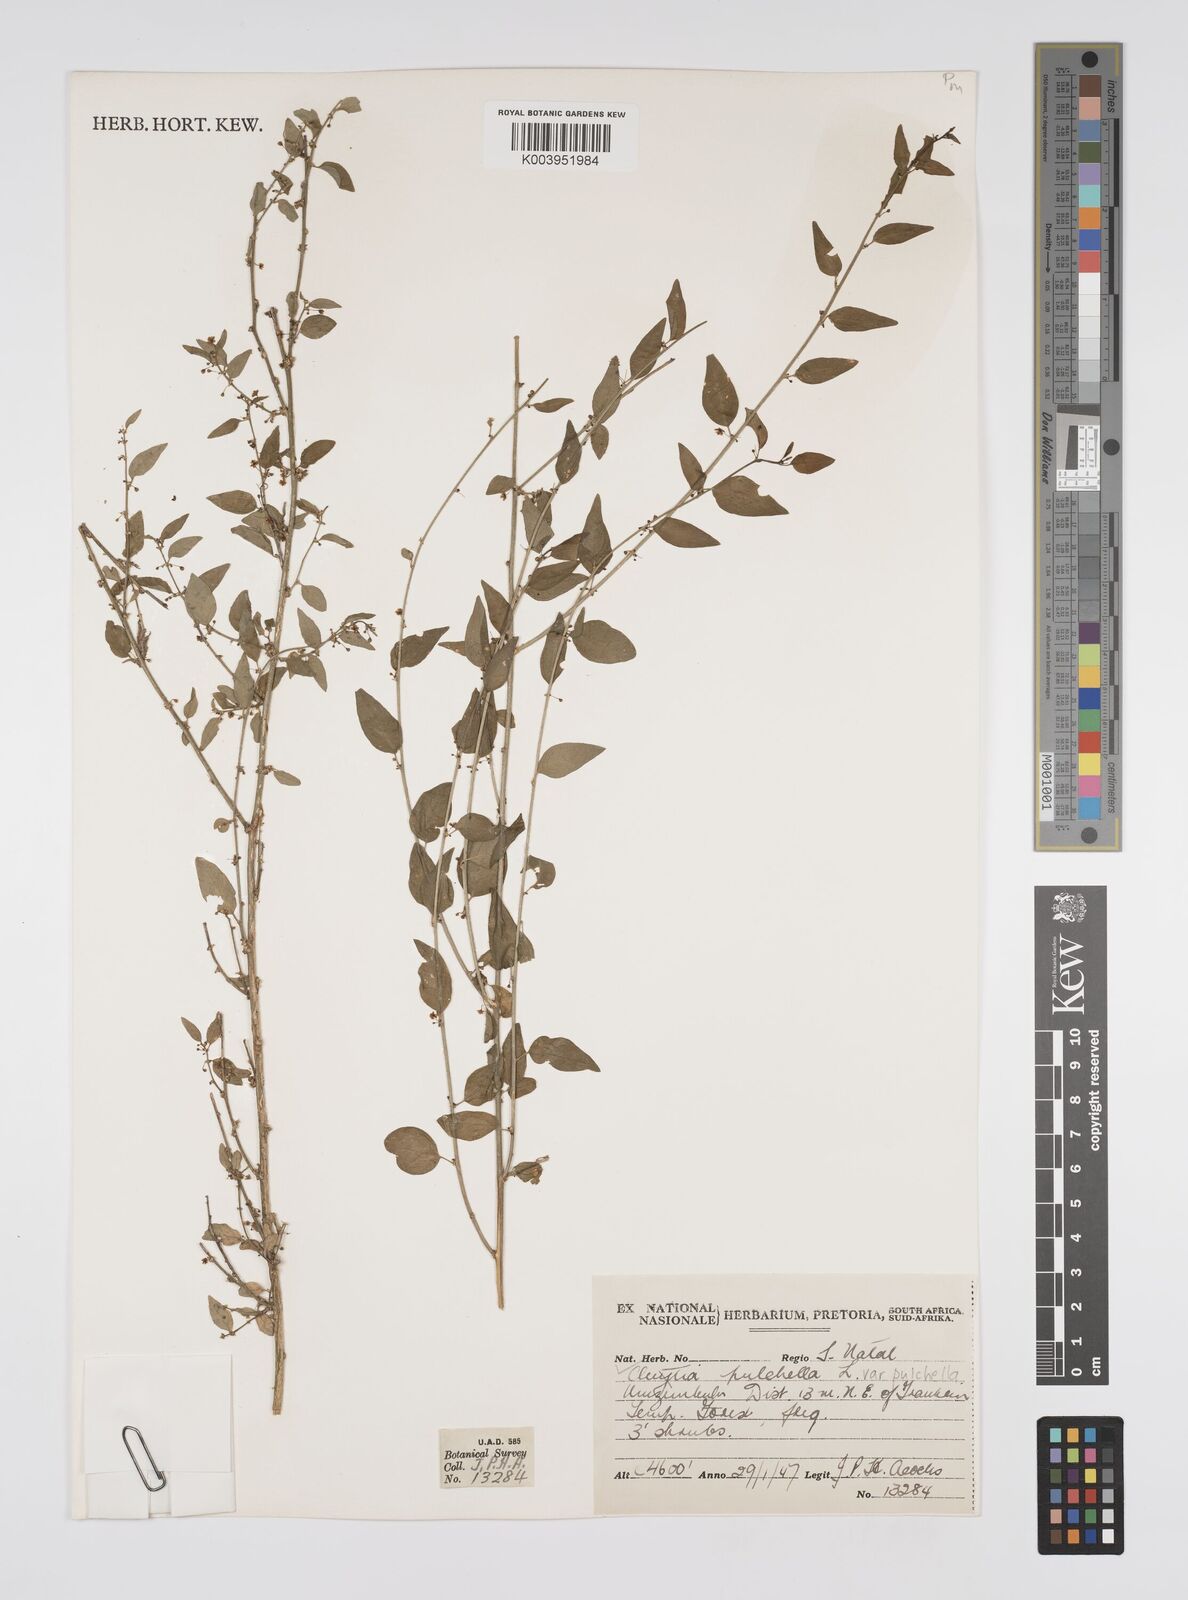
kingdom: Plantae
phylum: Tracheophyta
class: Magnoliopsida
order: Malpighiales
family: Peraceae
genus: Clutia
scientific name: Clutia pulchella
